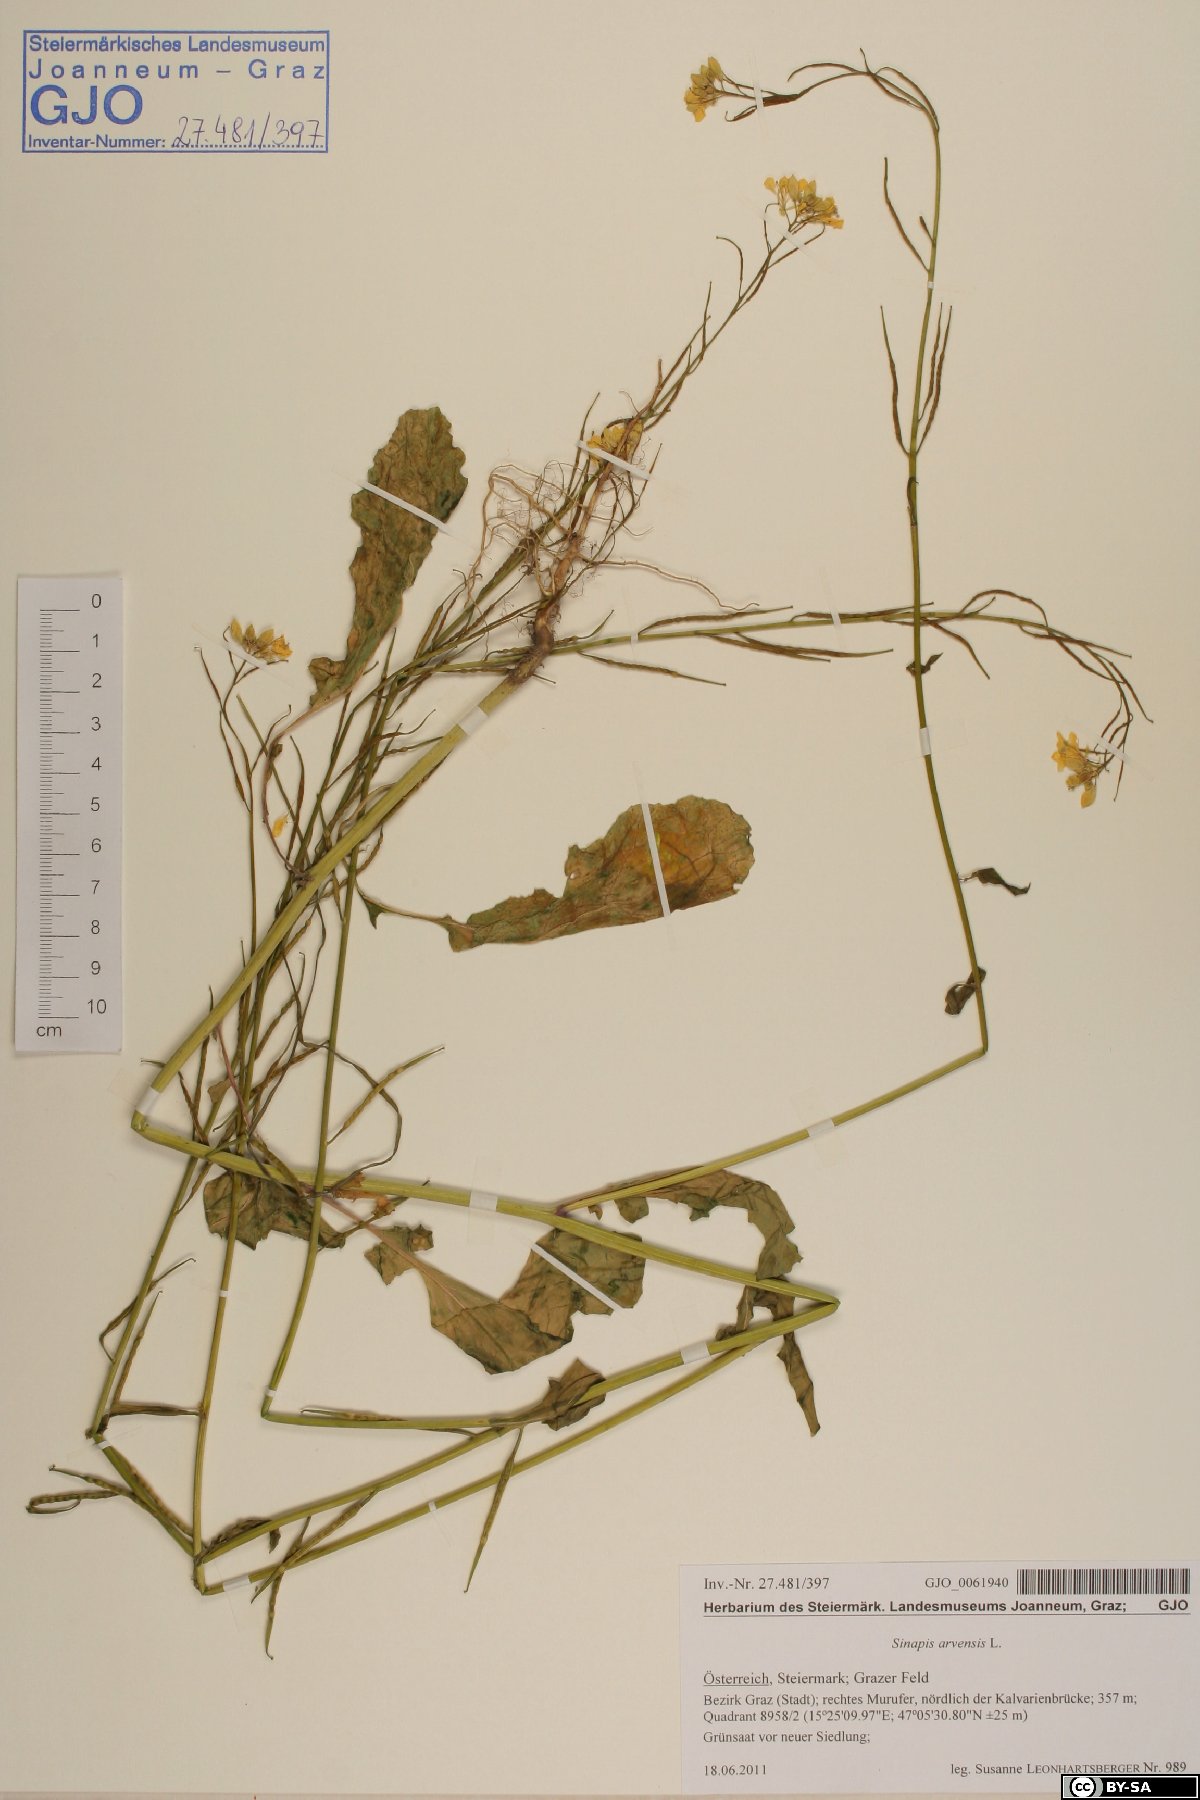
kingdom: Plantae
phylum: Tracheophyta
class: Magnoliopsida
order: Brassicales
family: Brassicaceae
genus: Sinapis
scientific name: Sinapis arvensis
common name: Charlock
